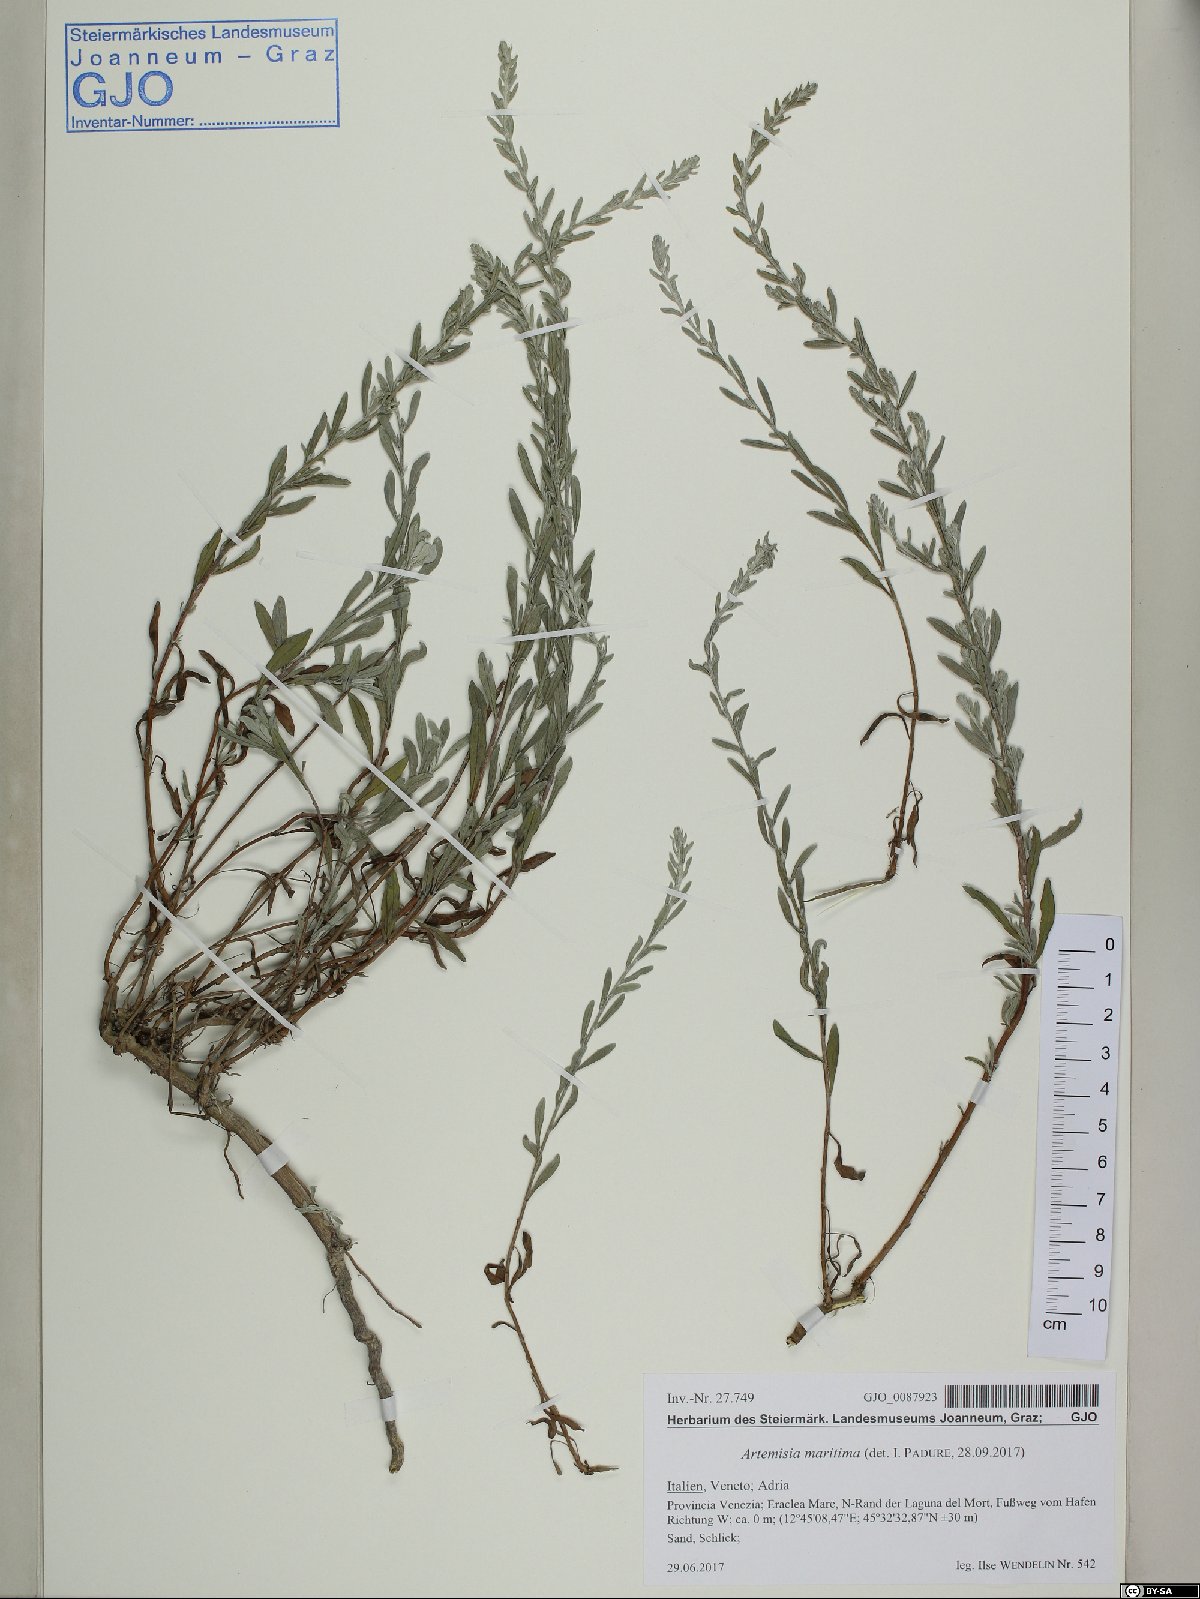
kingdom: Plantae
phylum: Tracheophyta
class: Magnoliopsida
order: Asterales
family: Asteraceae
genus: Artemisia
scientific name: Artemisia maritima
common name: Wormseed
